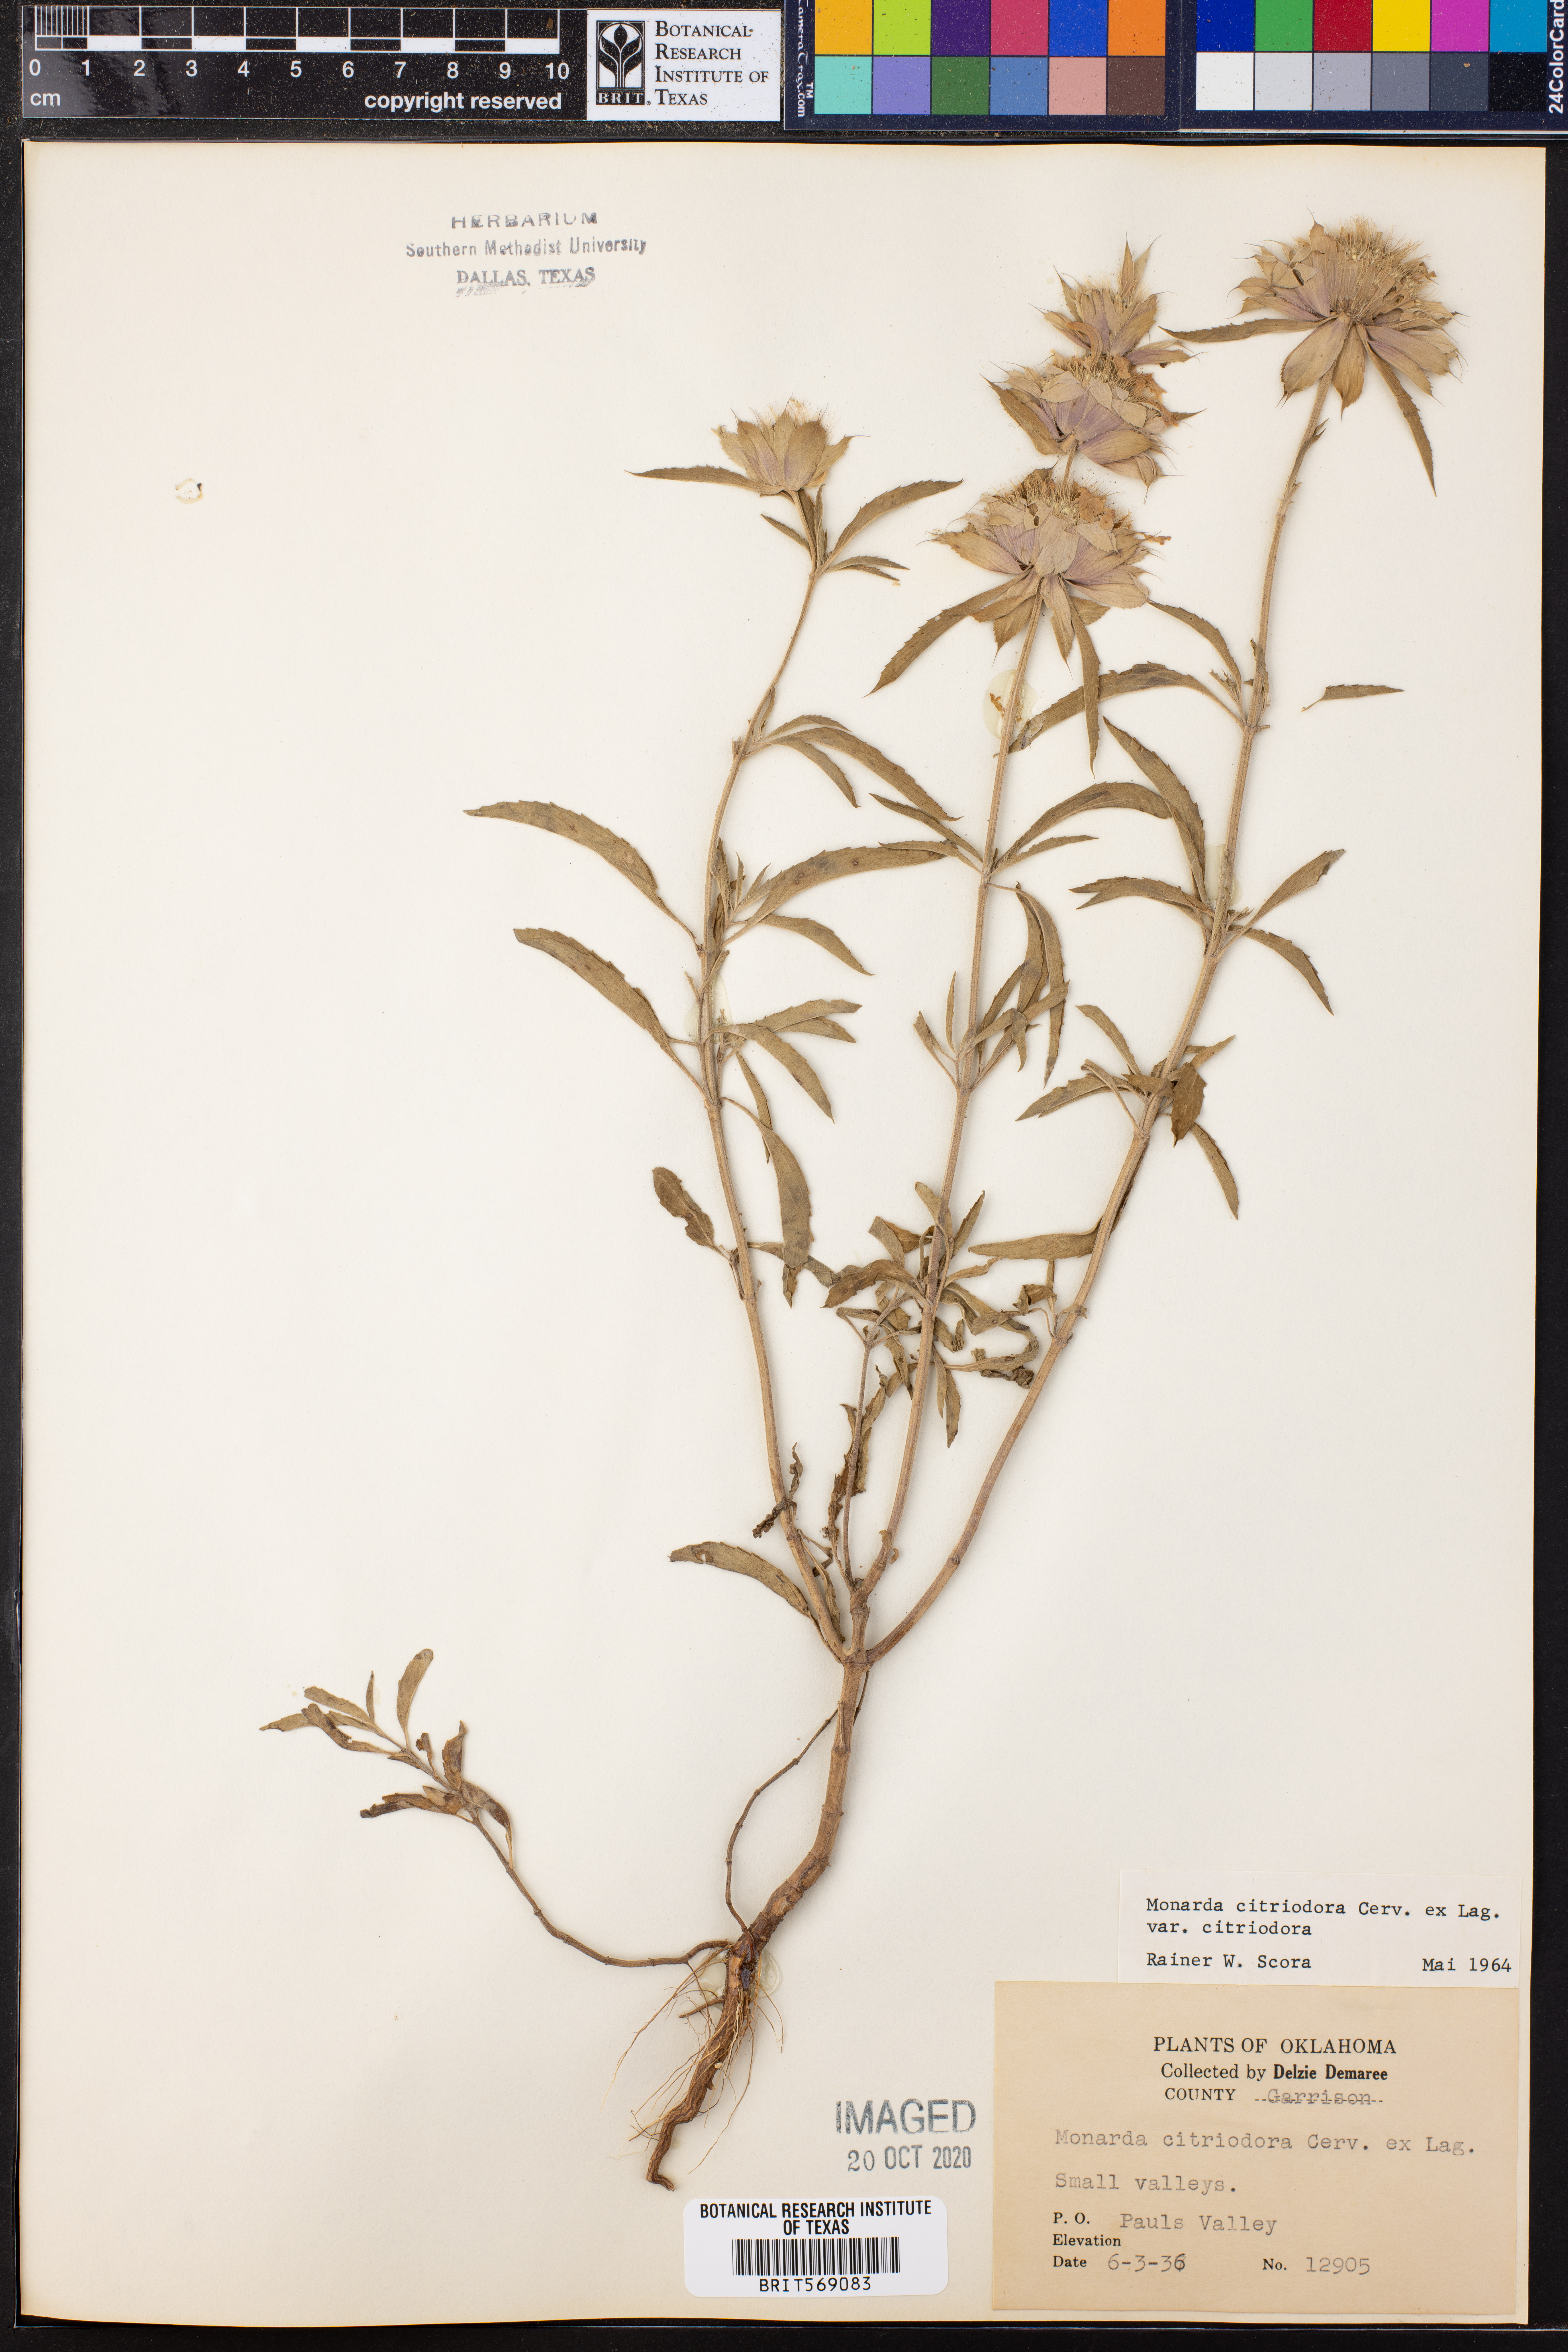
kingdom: Plantae
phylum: Tracheophyta
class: Magnoliopsida
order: Lamiales
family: Lamiaceae
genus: Monarda
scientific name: Monarda citriodora
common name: Lemon beebalm
